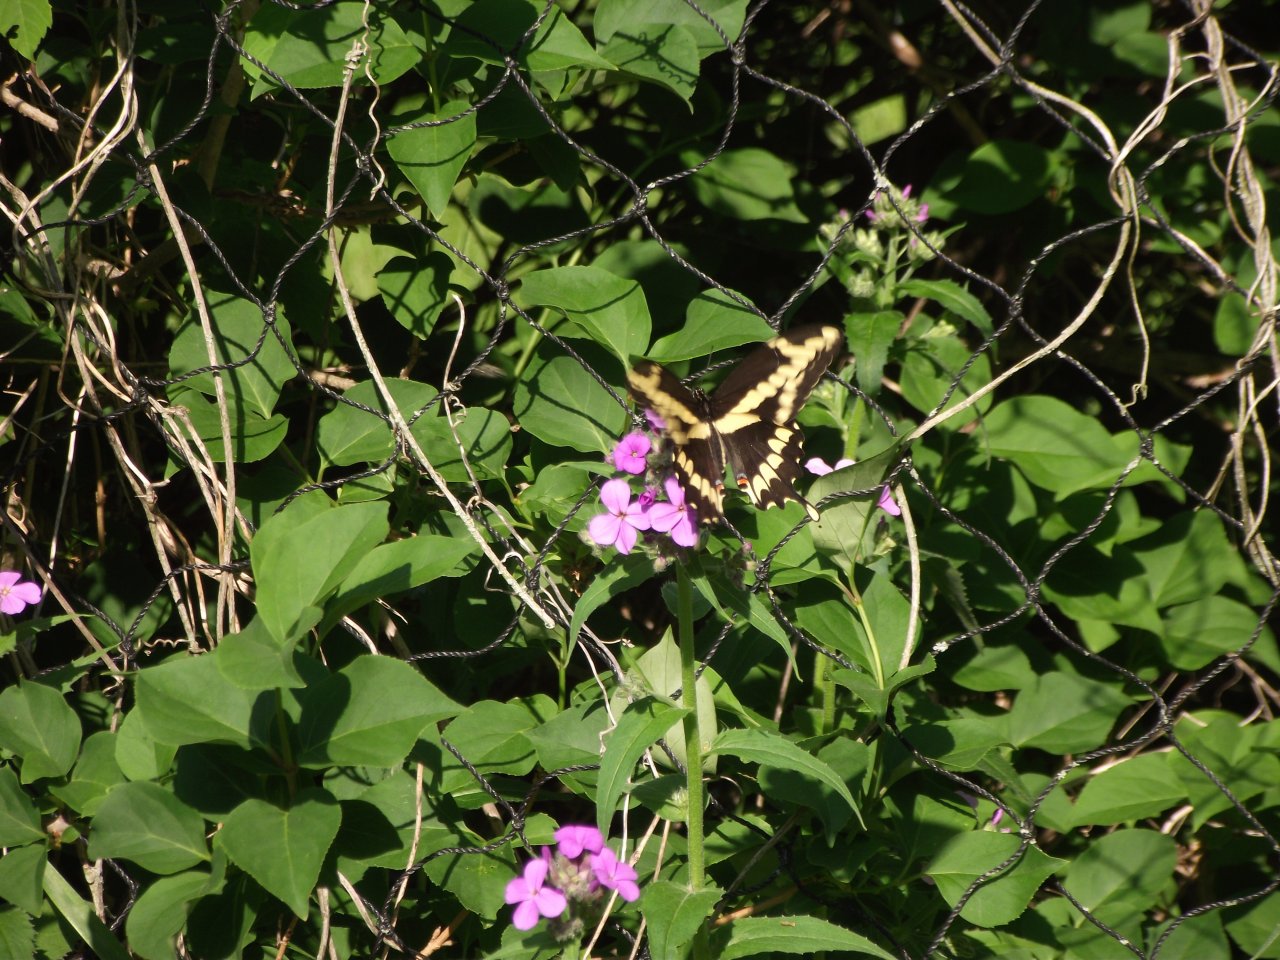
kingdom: Animalia
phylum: Arthropoda
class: Insecta
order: Lepidoptera
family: Papilionidae
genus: Papilio
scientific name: Papilio cresphontes
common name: Eastern Giant Swallowtail
